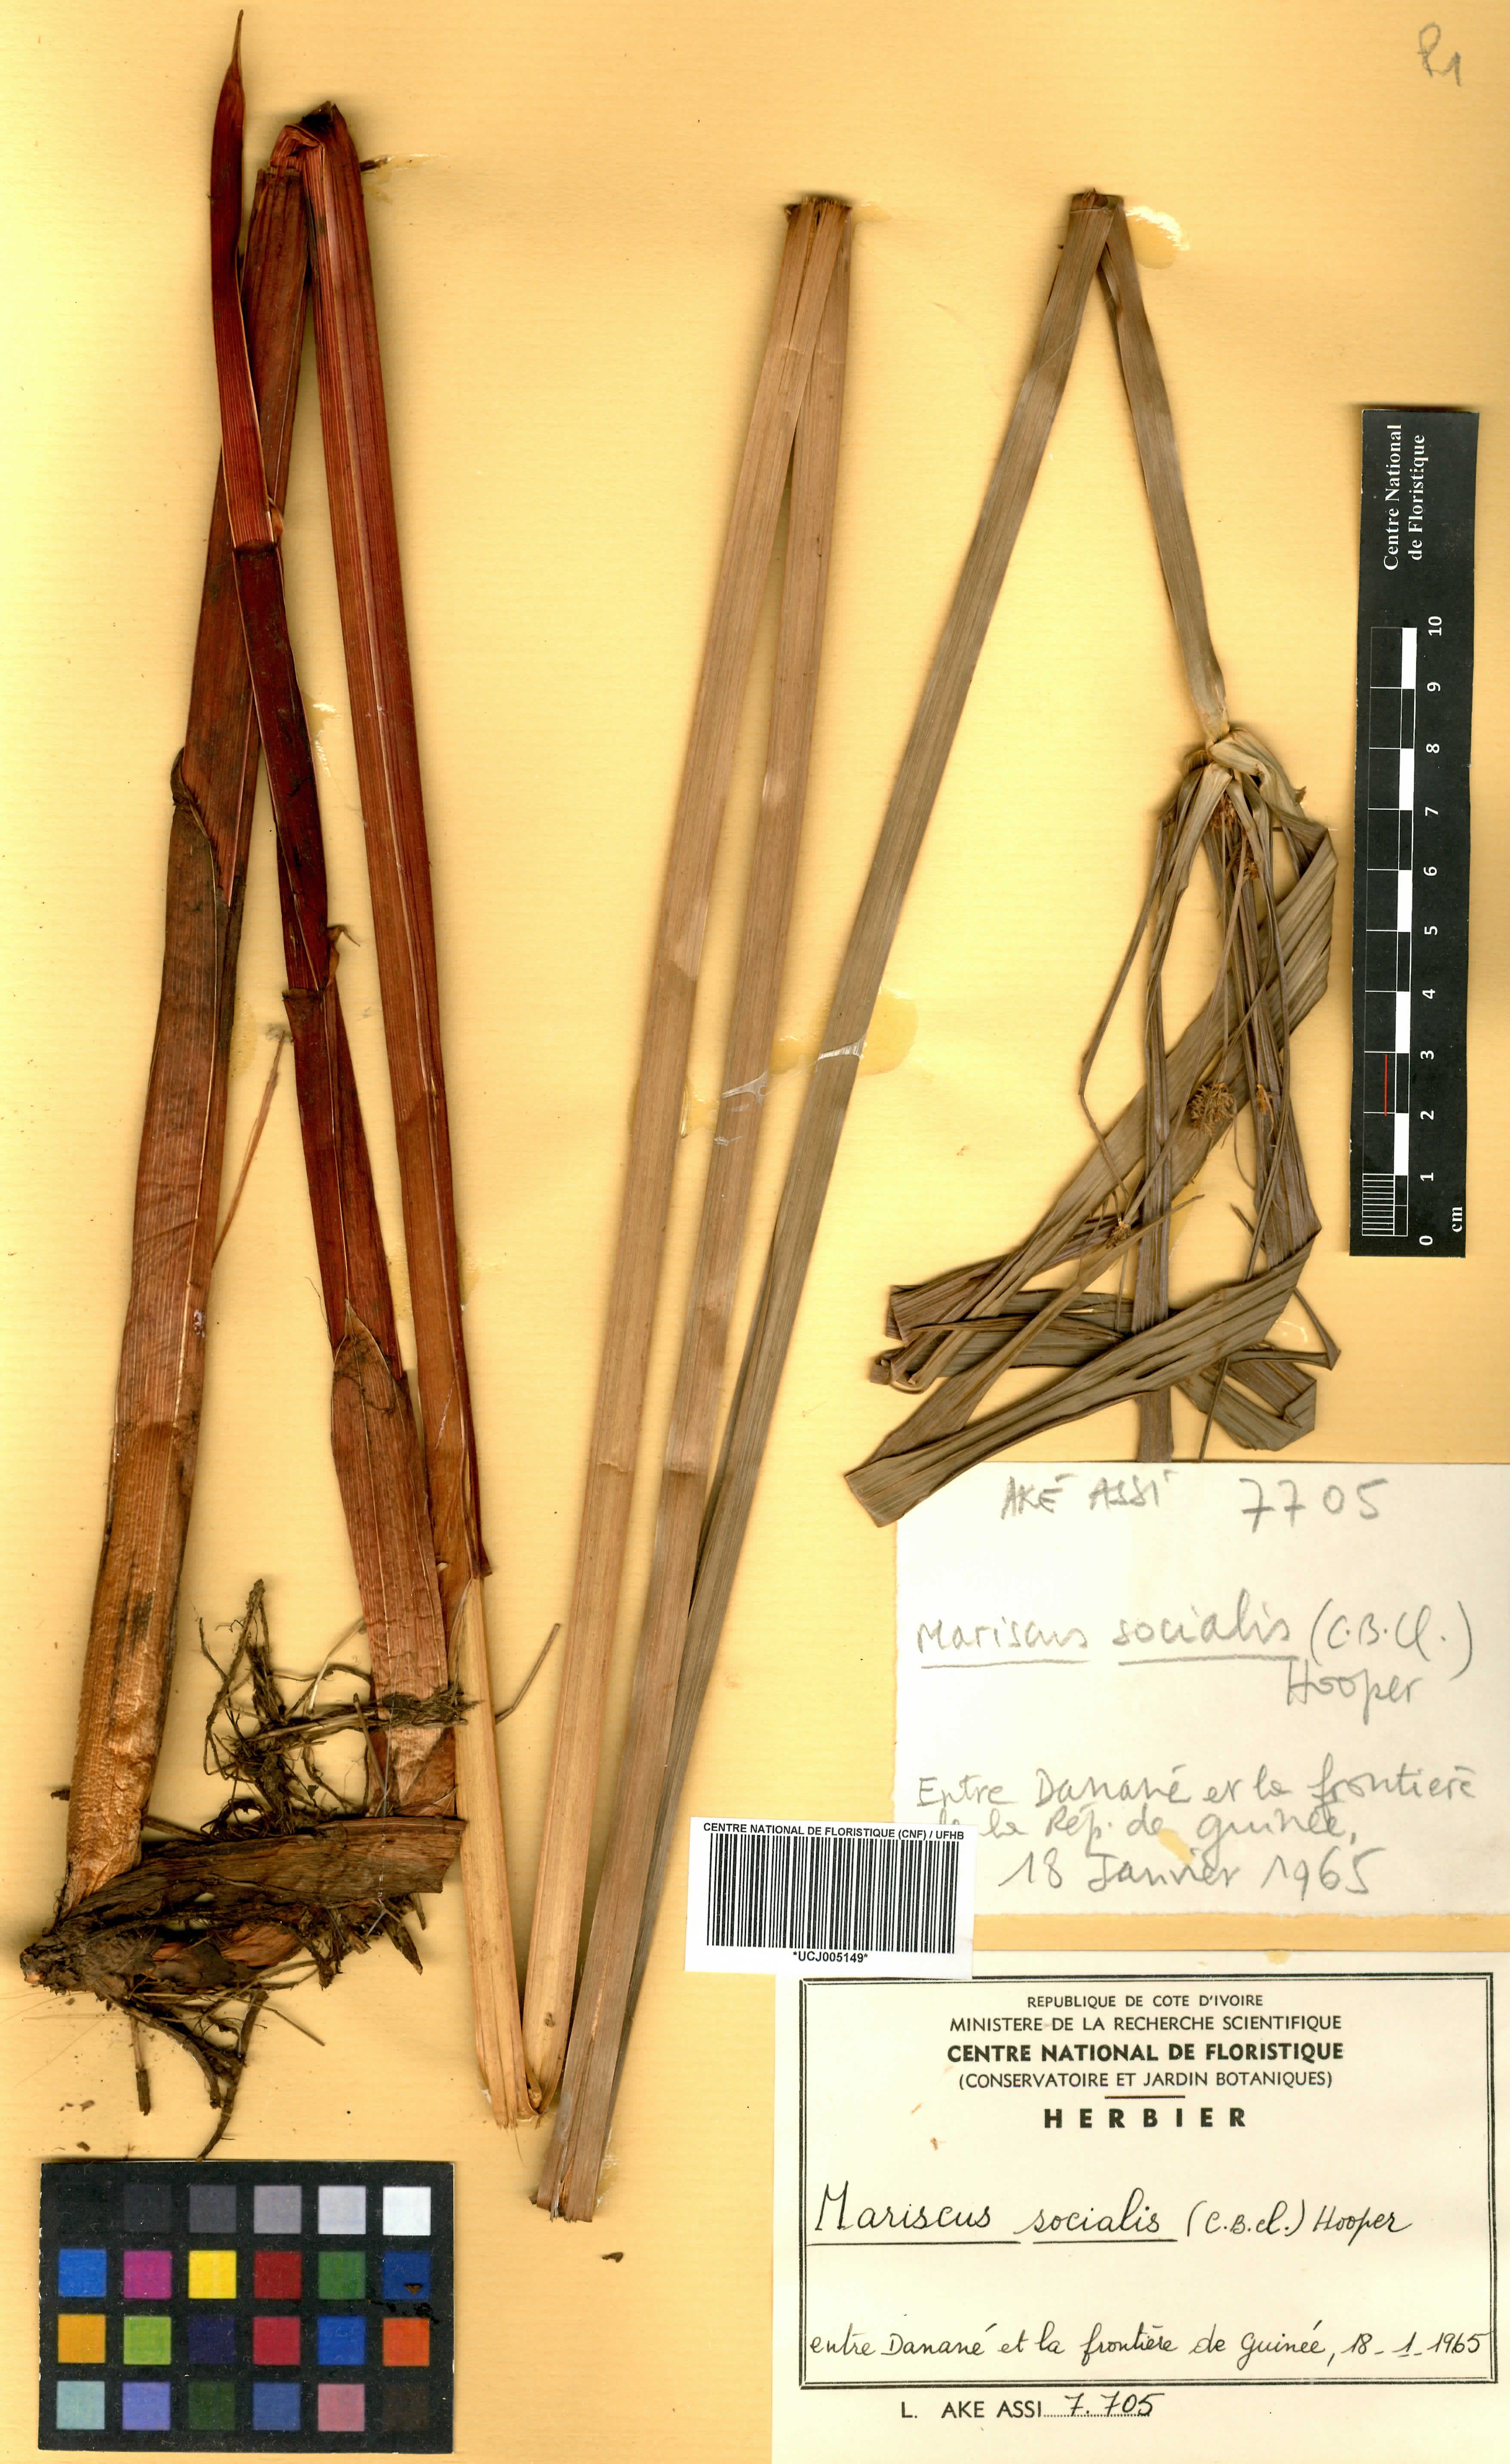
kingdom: Plantae
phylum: Tracheophyta
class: Liliopsida
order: Poales
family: Cyperaceae
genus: Cyperus
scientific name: Cyperus pseudopilosus
